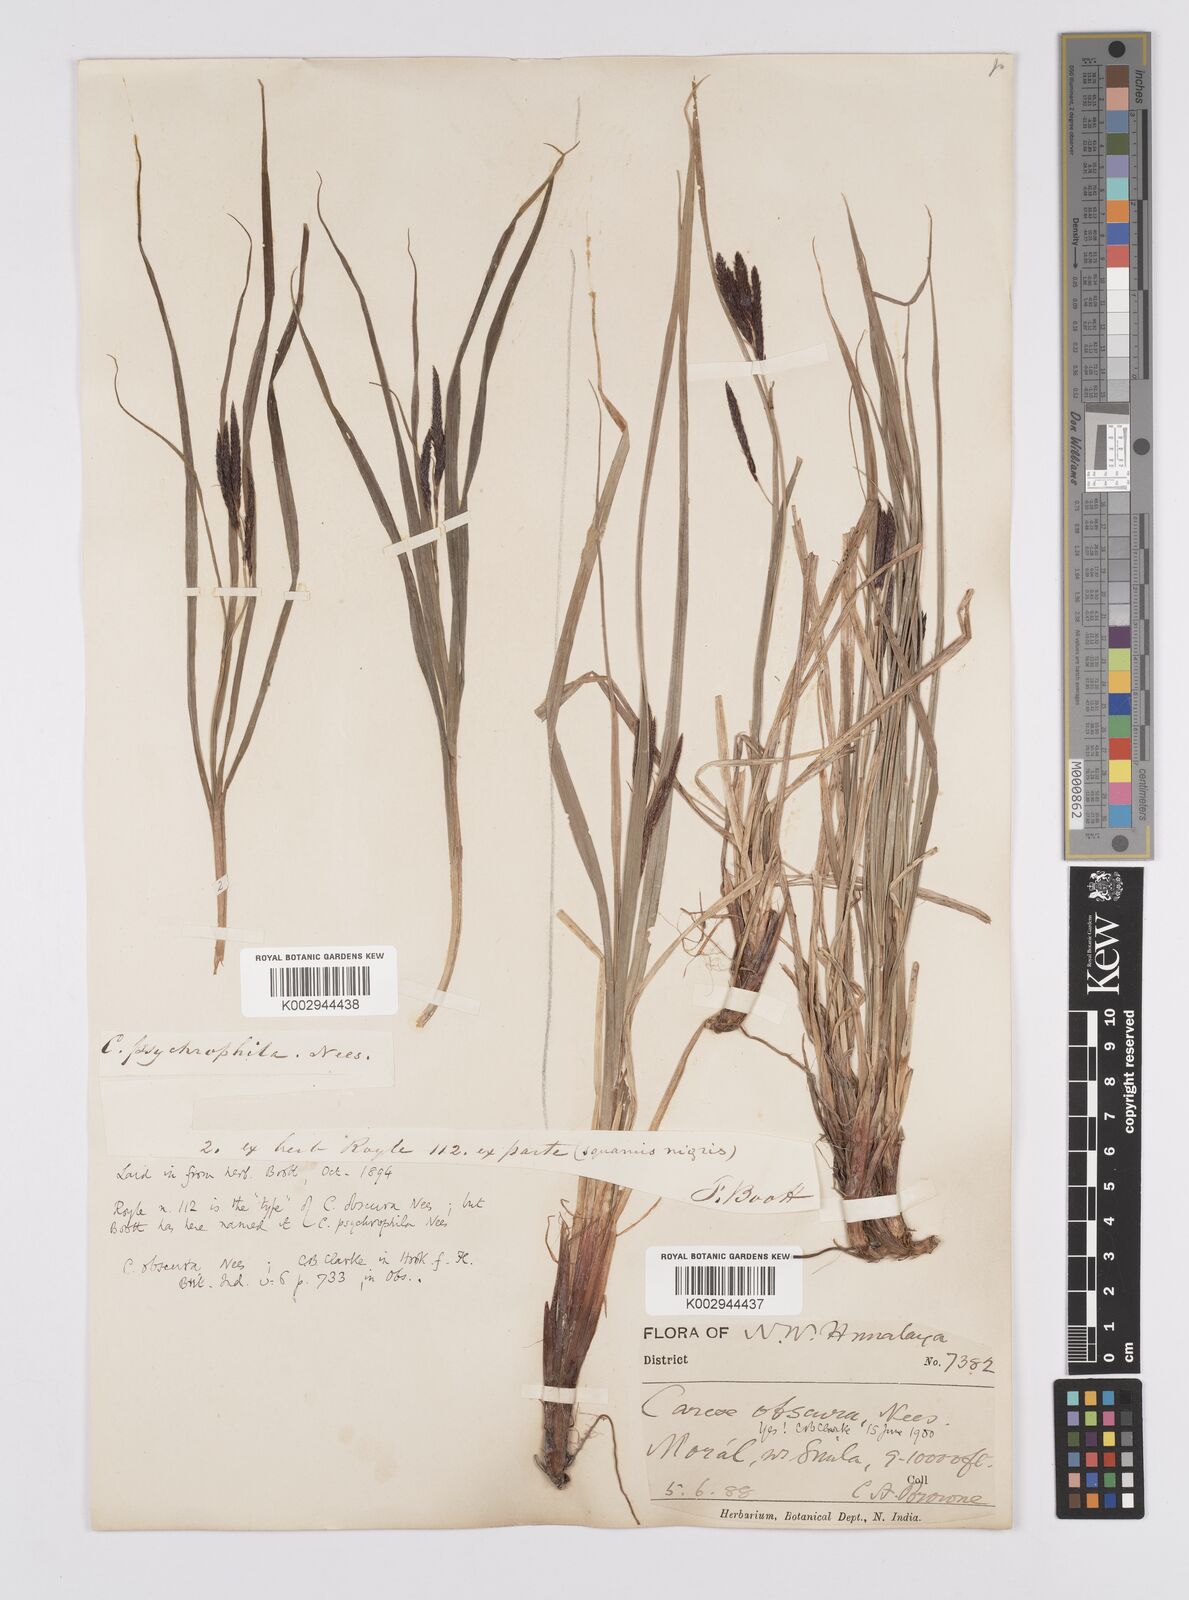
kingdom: Plantae
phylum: Tracheophyta
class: Liliopsida
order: Poales
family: Cyperaceae
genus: Carex
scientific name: Carex obscura
